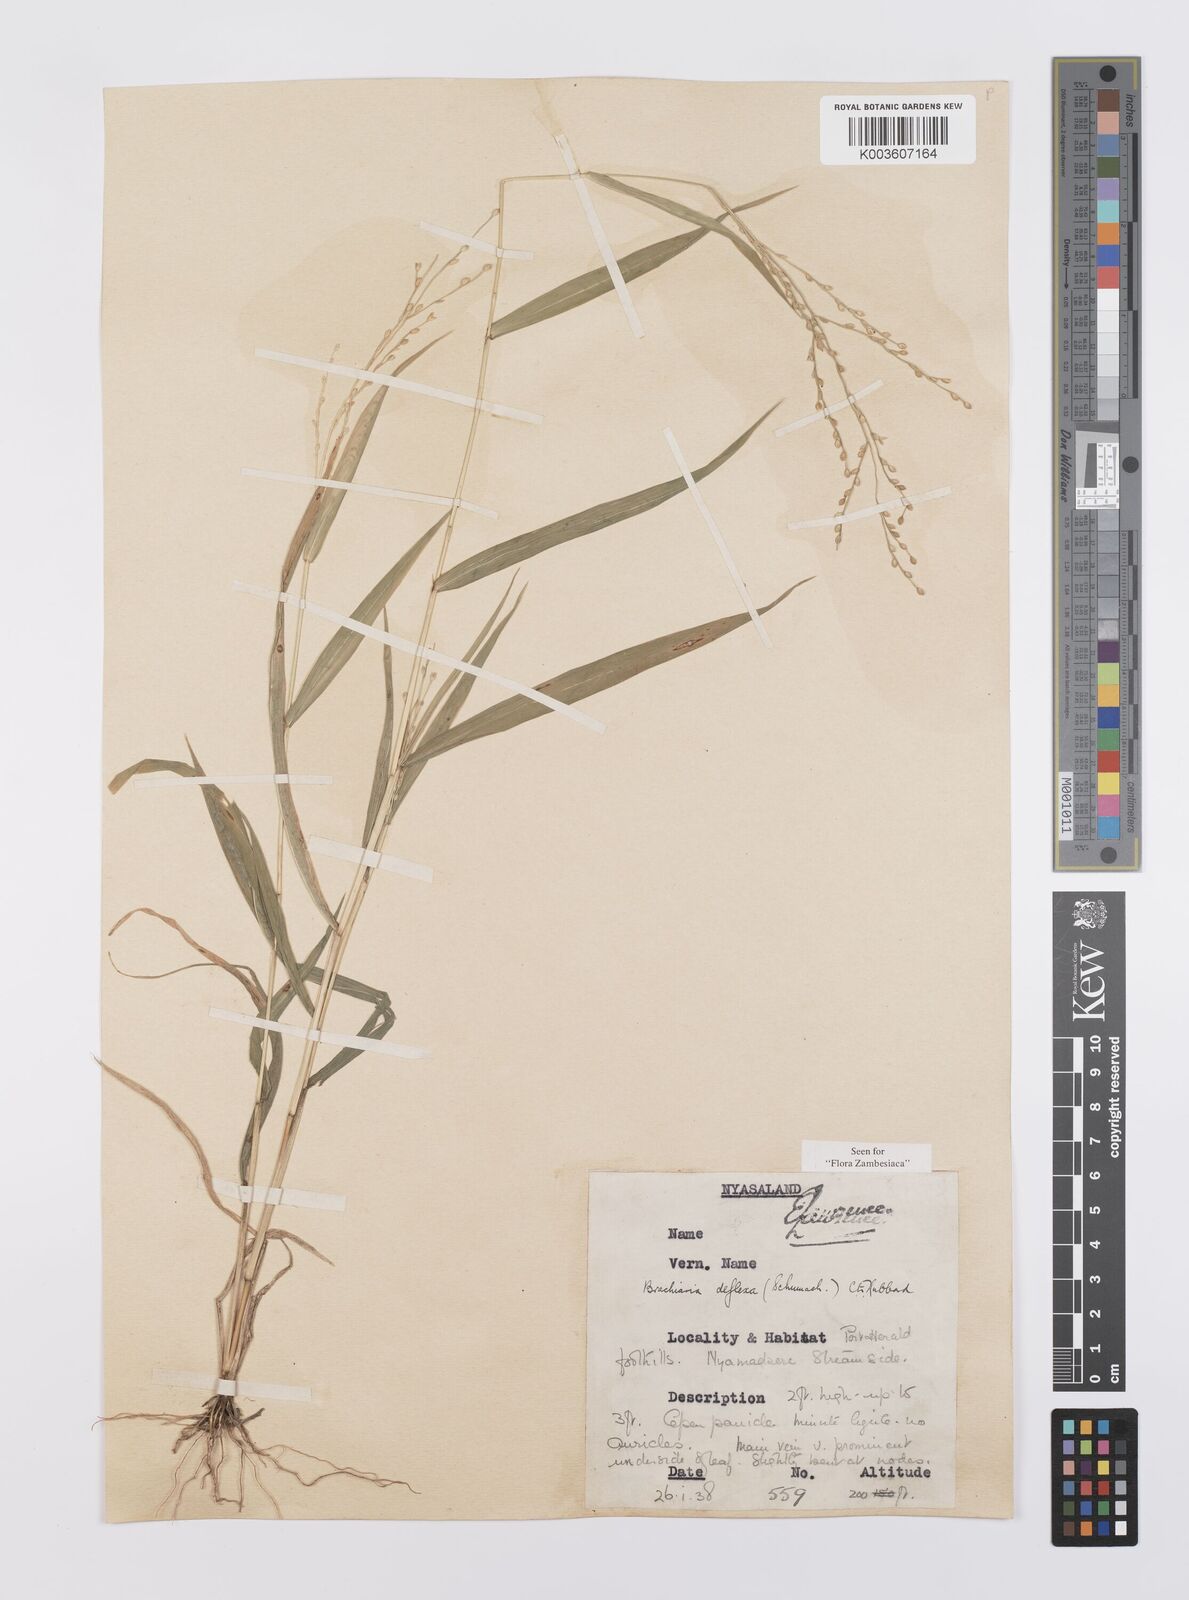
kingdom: Plantae
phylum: Tracheophyta
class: Liliopsida
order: Poales
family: Poaceae
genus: Urochloa
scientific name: Urochloa deflexa
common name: Guinea millet
